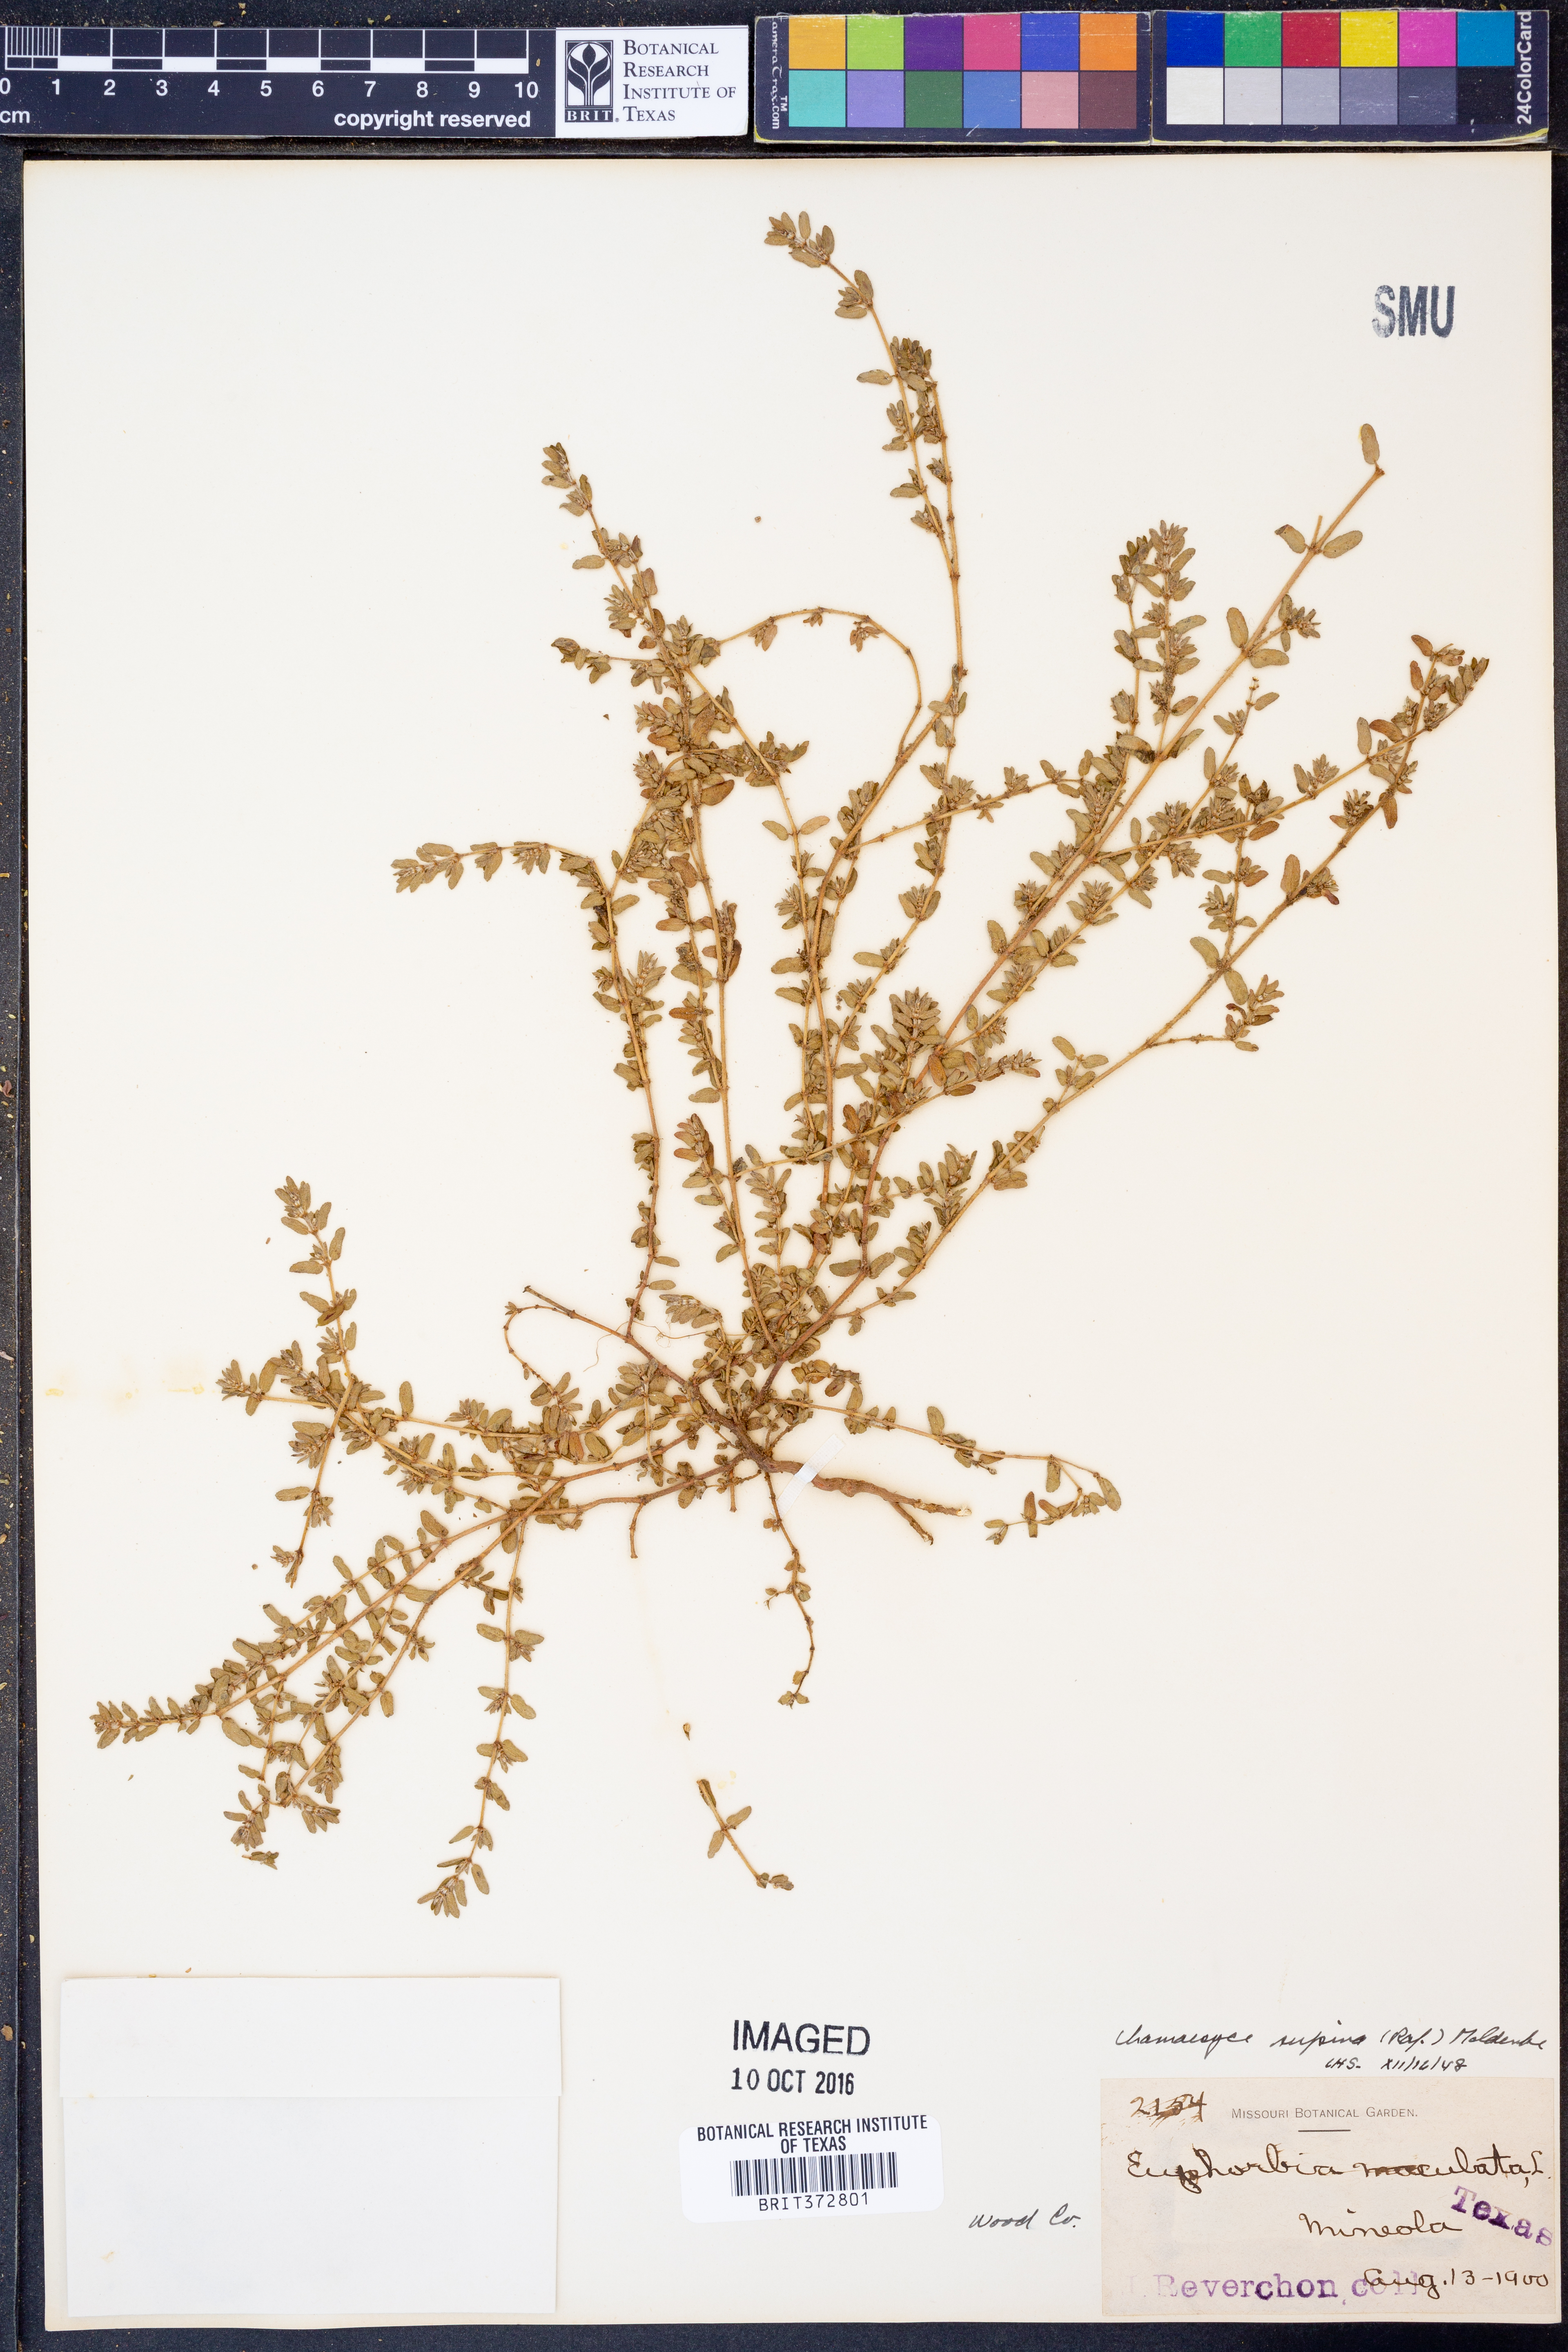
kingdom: Plantae
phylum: Tracheophyta
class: Magnoliopsida
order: Malpighiales
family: Euphorbiaceae
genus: Euphorbia
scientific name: Euphorbia maculata
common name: Spotted spurge
